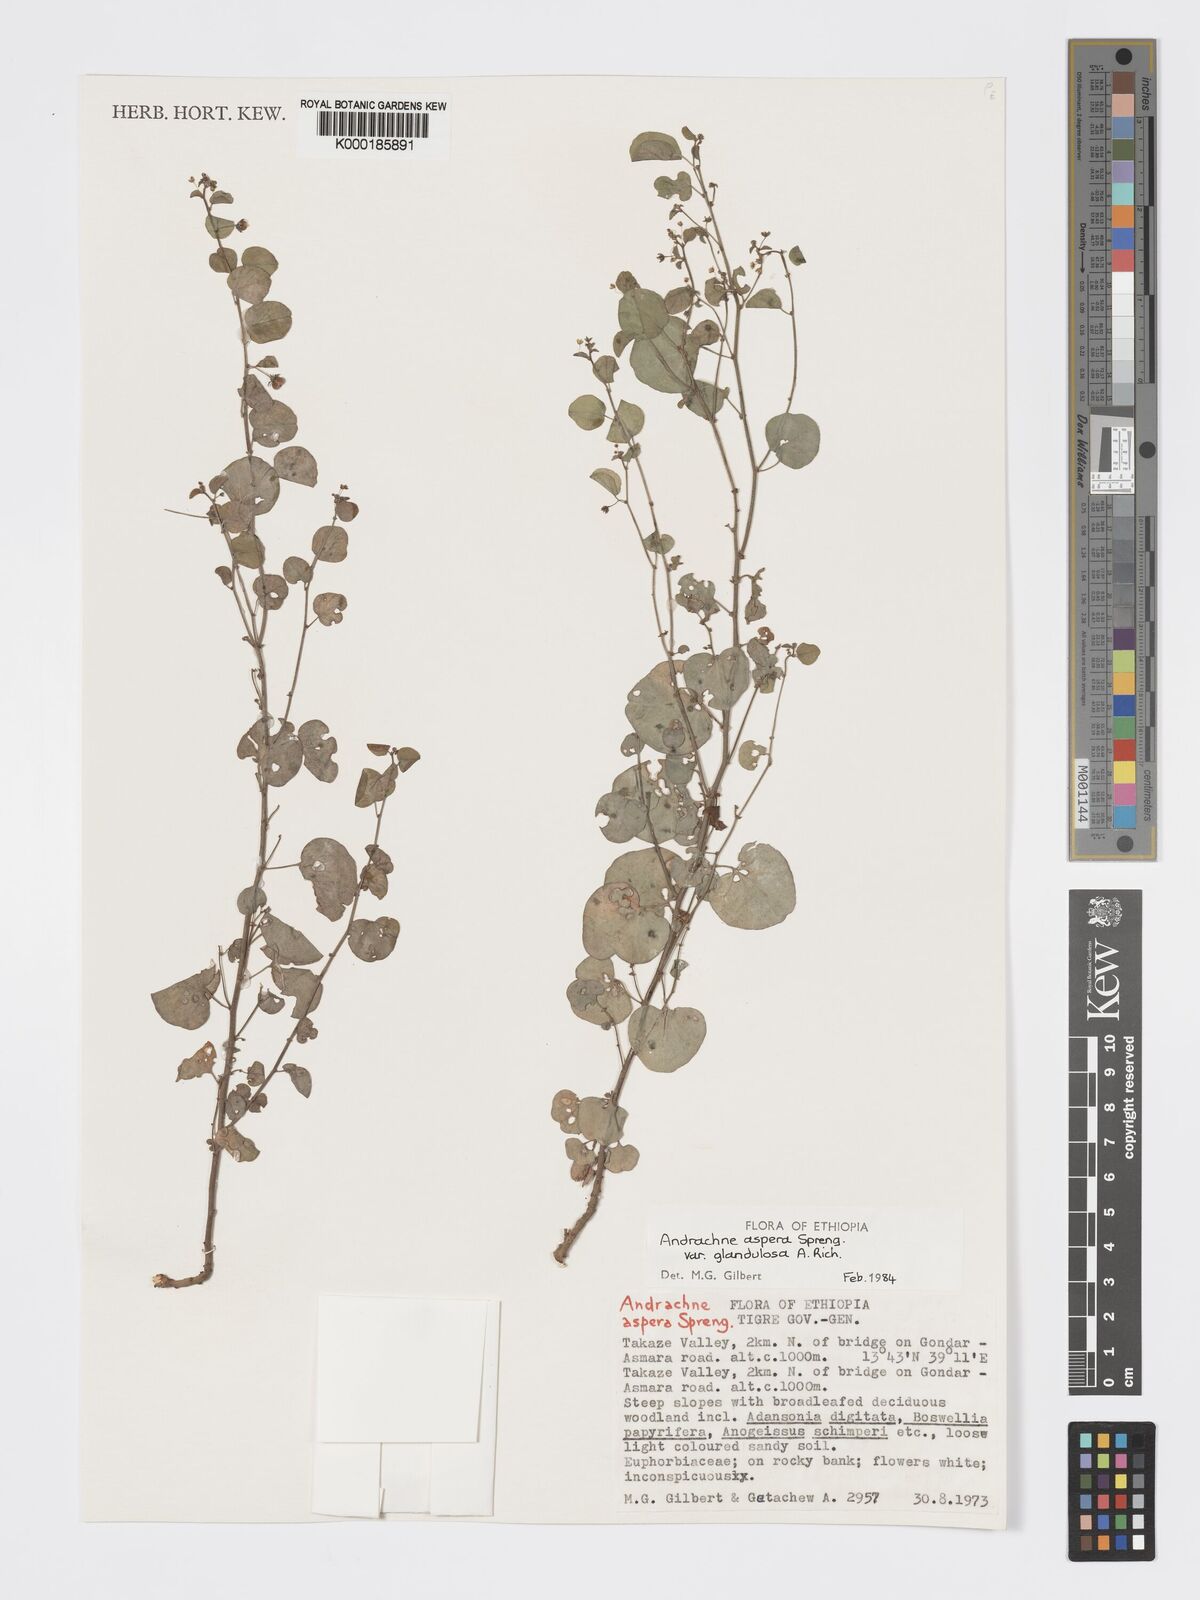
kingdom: Plantae
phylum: Tracheophyta
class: Magnoliopsida
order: Malpighiales
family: Phyllanthaceae
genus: Andrachne
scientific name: Andrachne aspera
